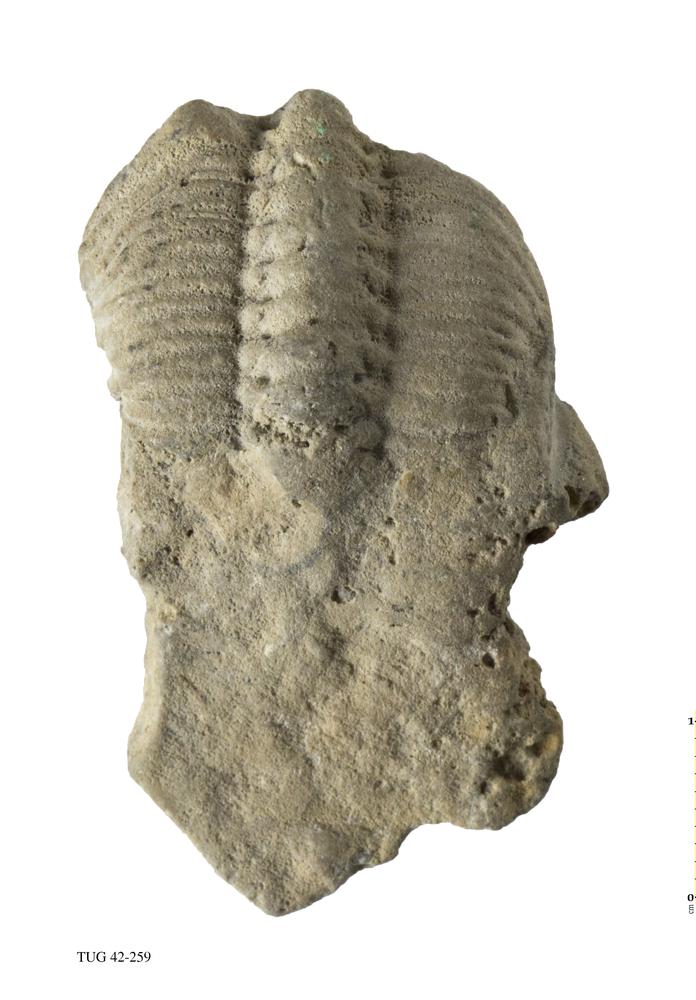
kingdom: Animalia
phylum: Arthropoda
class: Trilobita
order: Phacopida
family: Phacopidae
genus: Phacops
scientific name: Phacops
